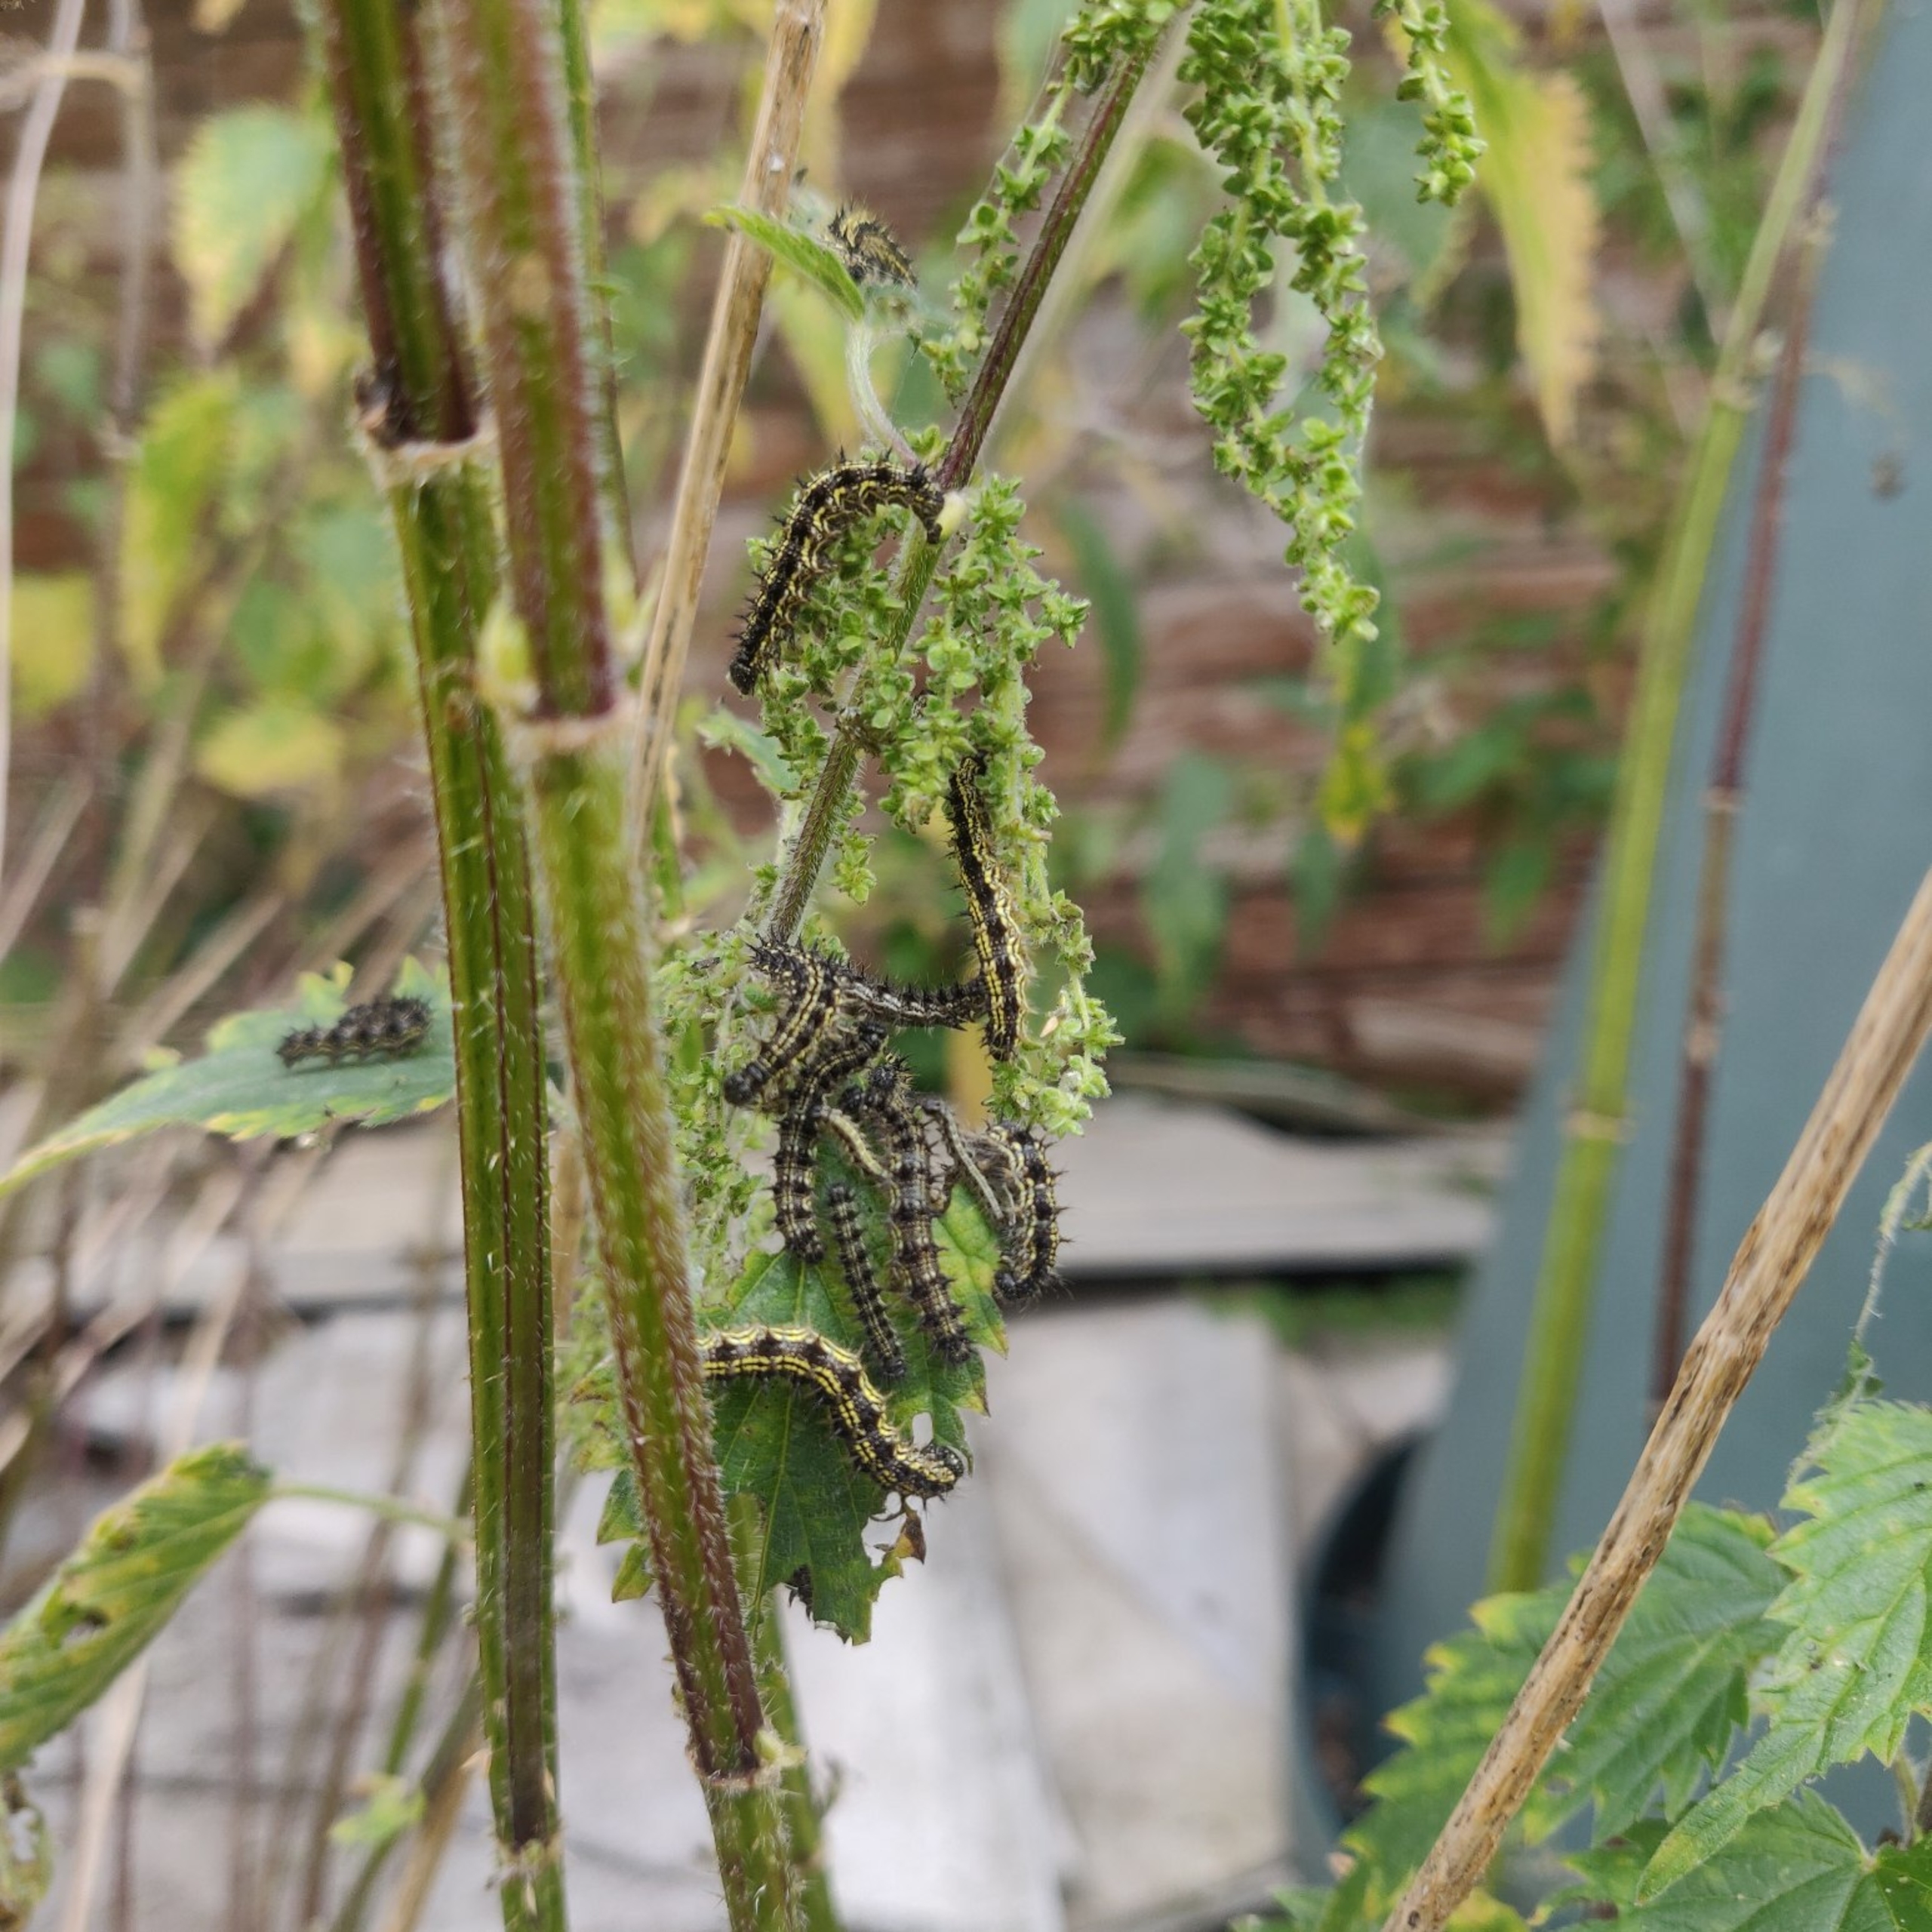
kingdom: Animalia
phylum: Arthropoda
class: Insecta
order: Lepidoptera
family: Nymphalidae
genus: Aglais
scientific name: Aglais urticae
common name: Nældens takvinge
